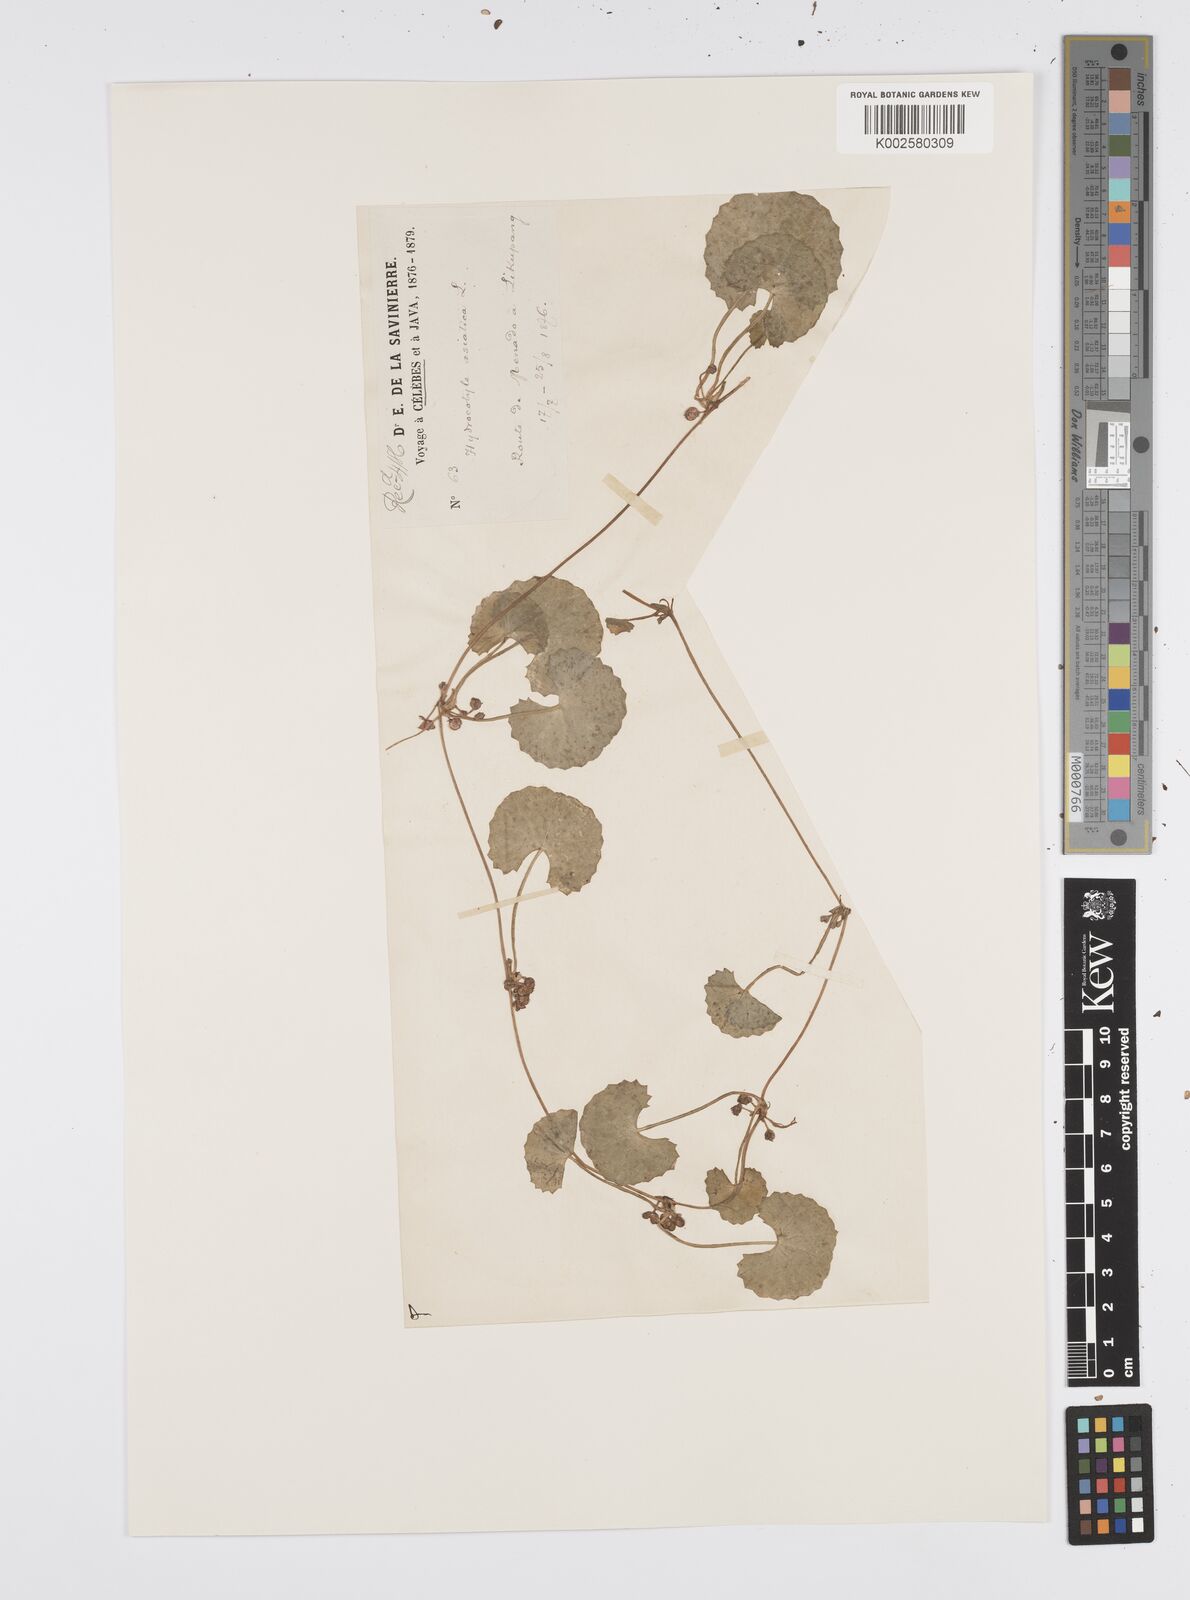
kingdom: Plantae
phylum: Tracheophyta
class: Magnoliopsida
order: Apiales
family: Apiaceae
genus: Centella
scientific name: Centella asiatica
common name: Spadeleaf
